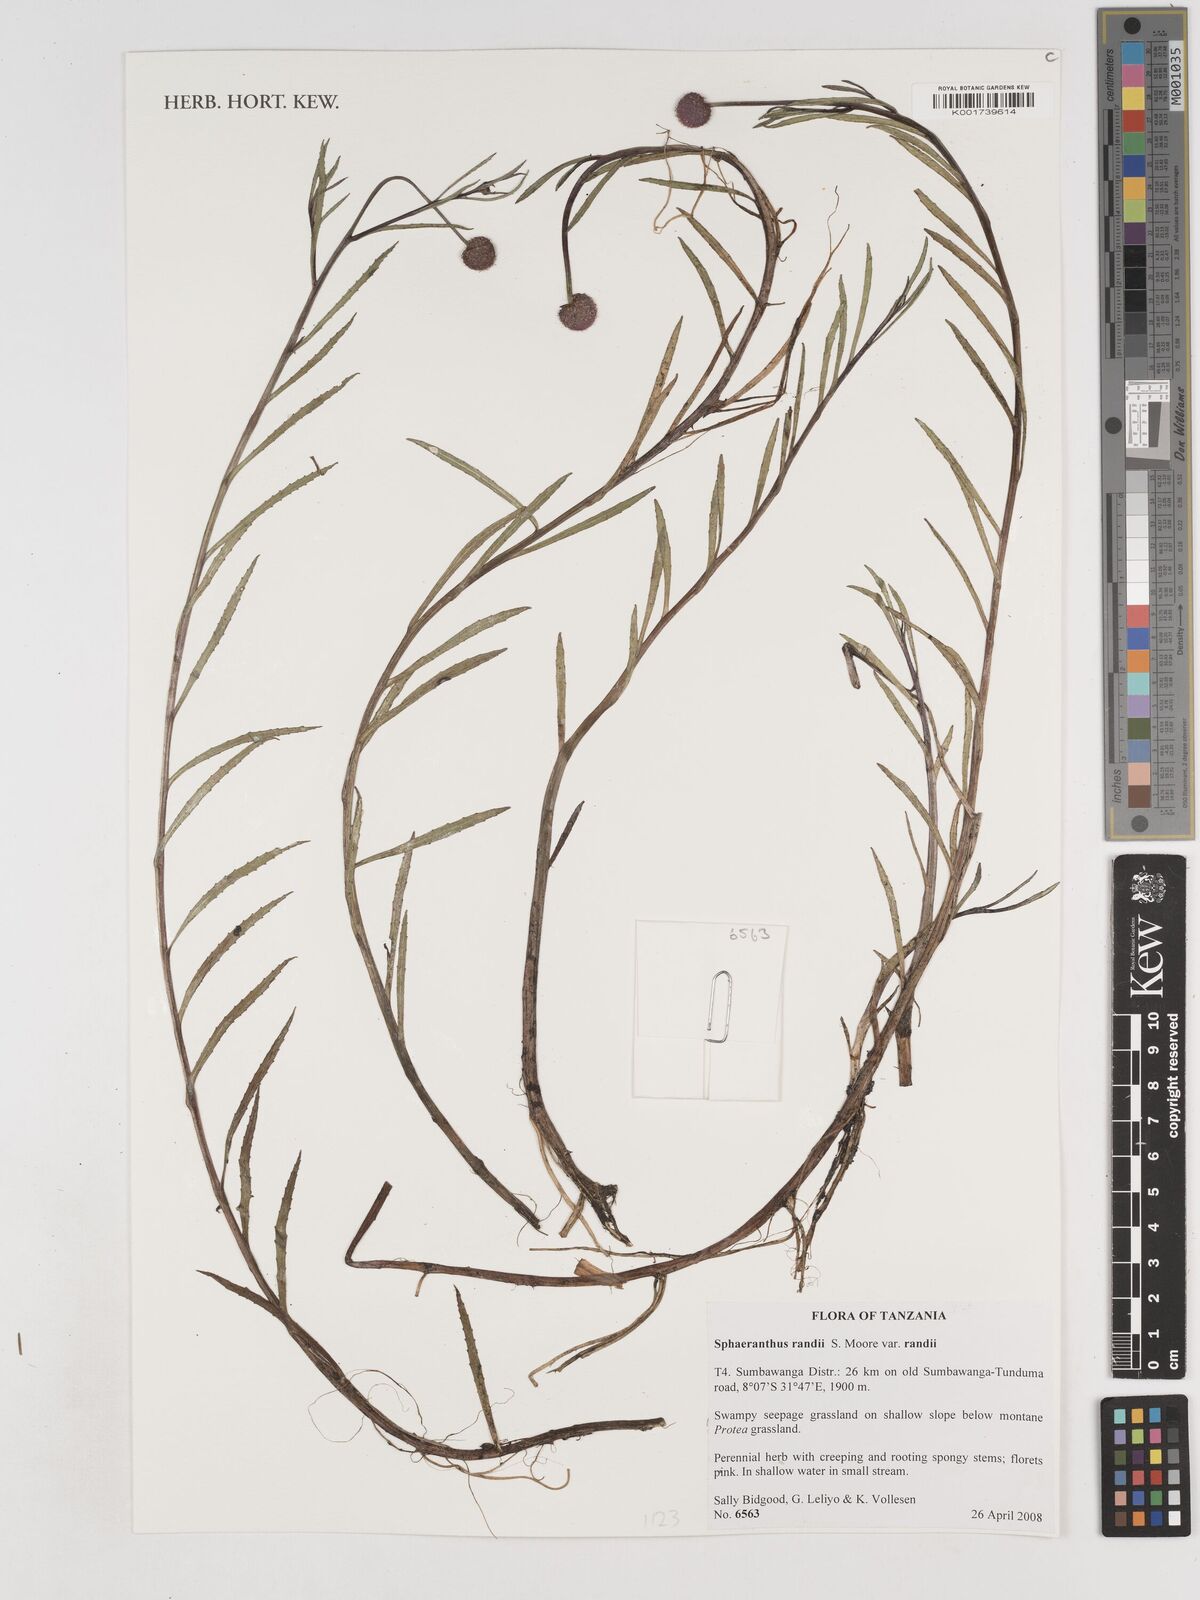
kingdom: Plantae
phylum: Tracheophyta
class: Magnoliopsida
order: Asterales
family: Asteraceae
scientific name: Asteraceae
